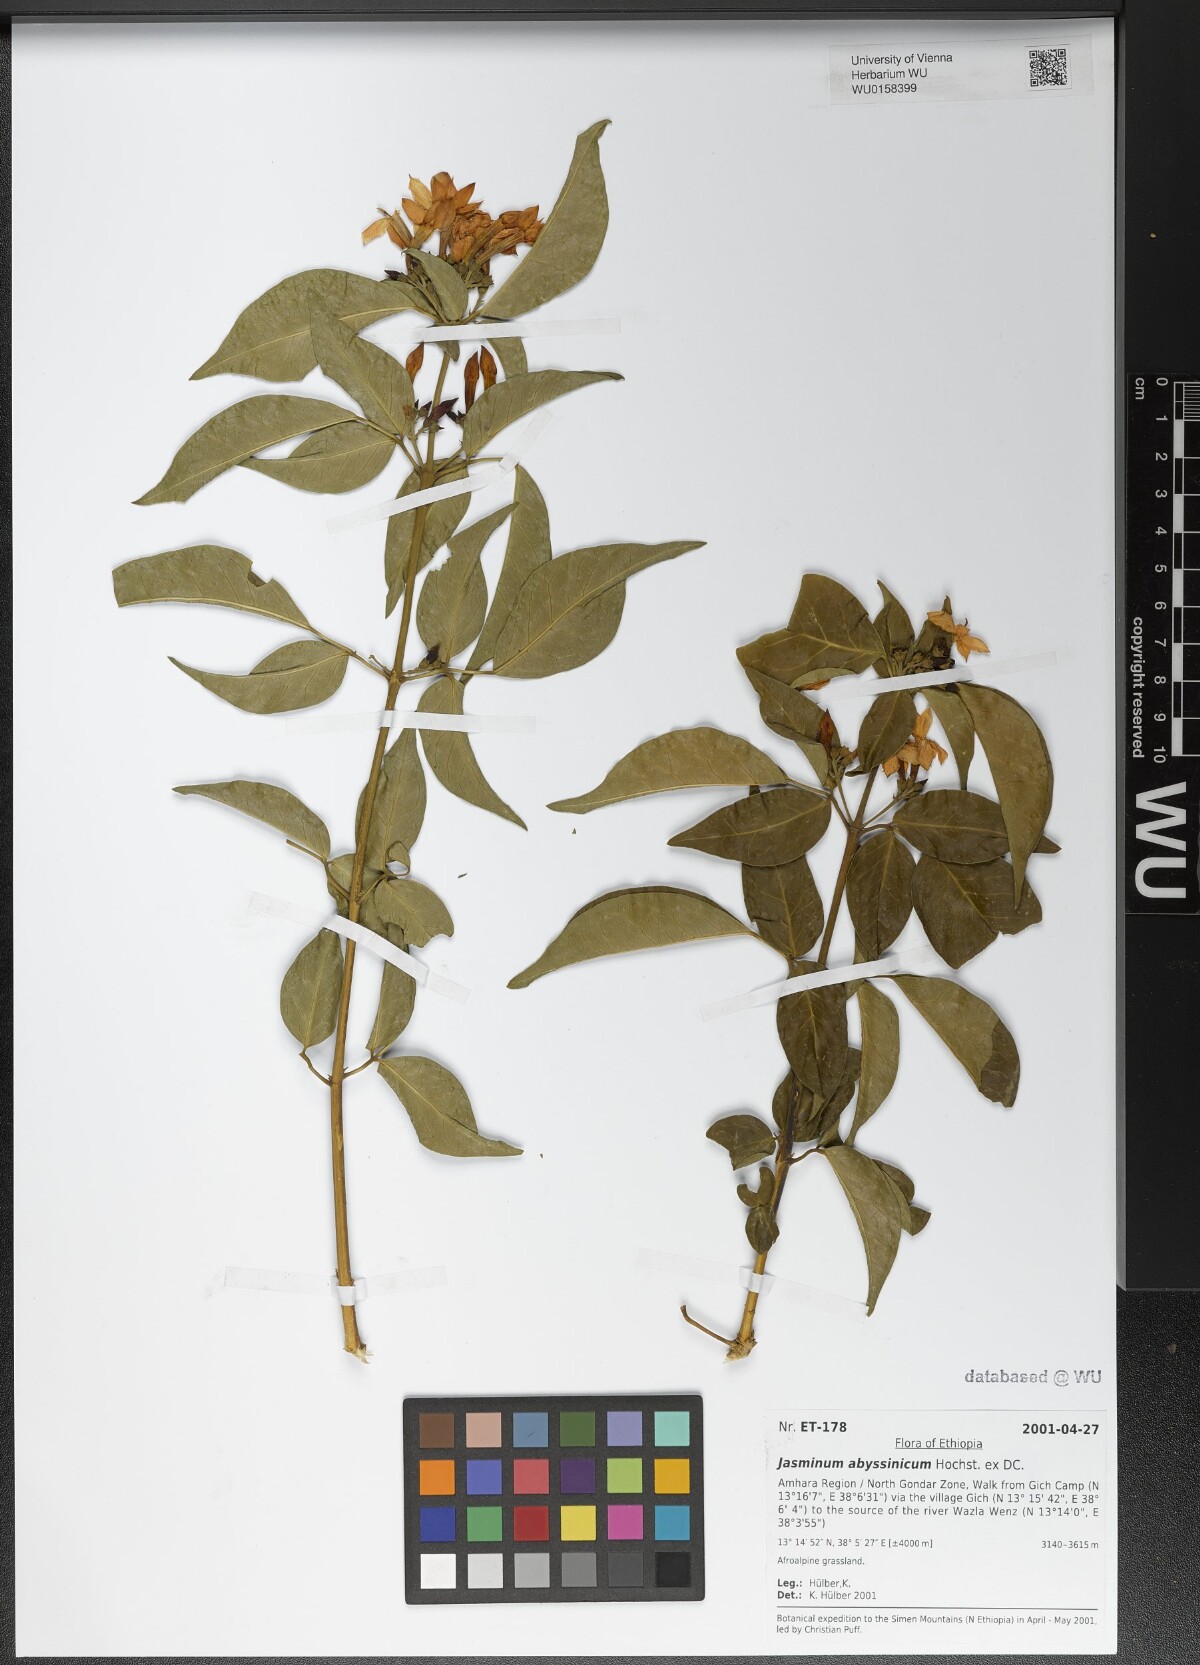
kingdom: Plantae
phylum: Tracheophyta
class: Magnoliopsida
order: Lamiales
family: Oleaceae
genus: Jasminum
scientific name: Jasminum abyssinicum
